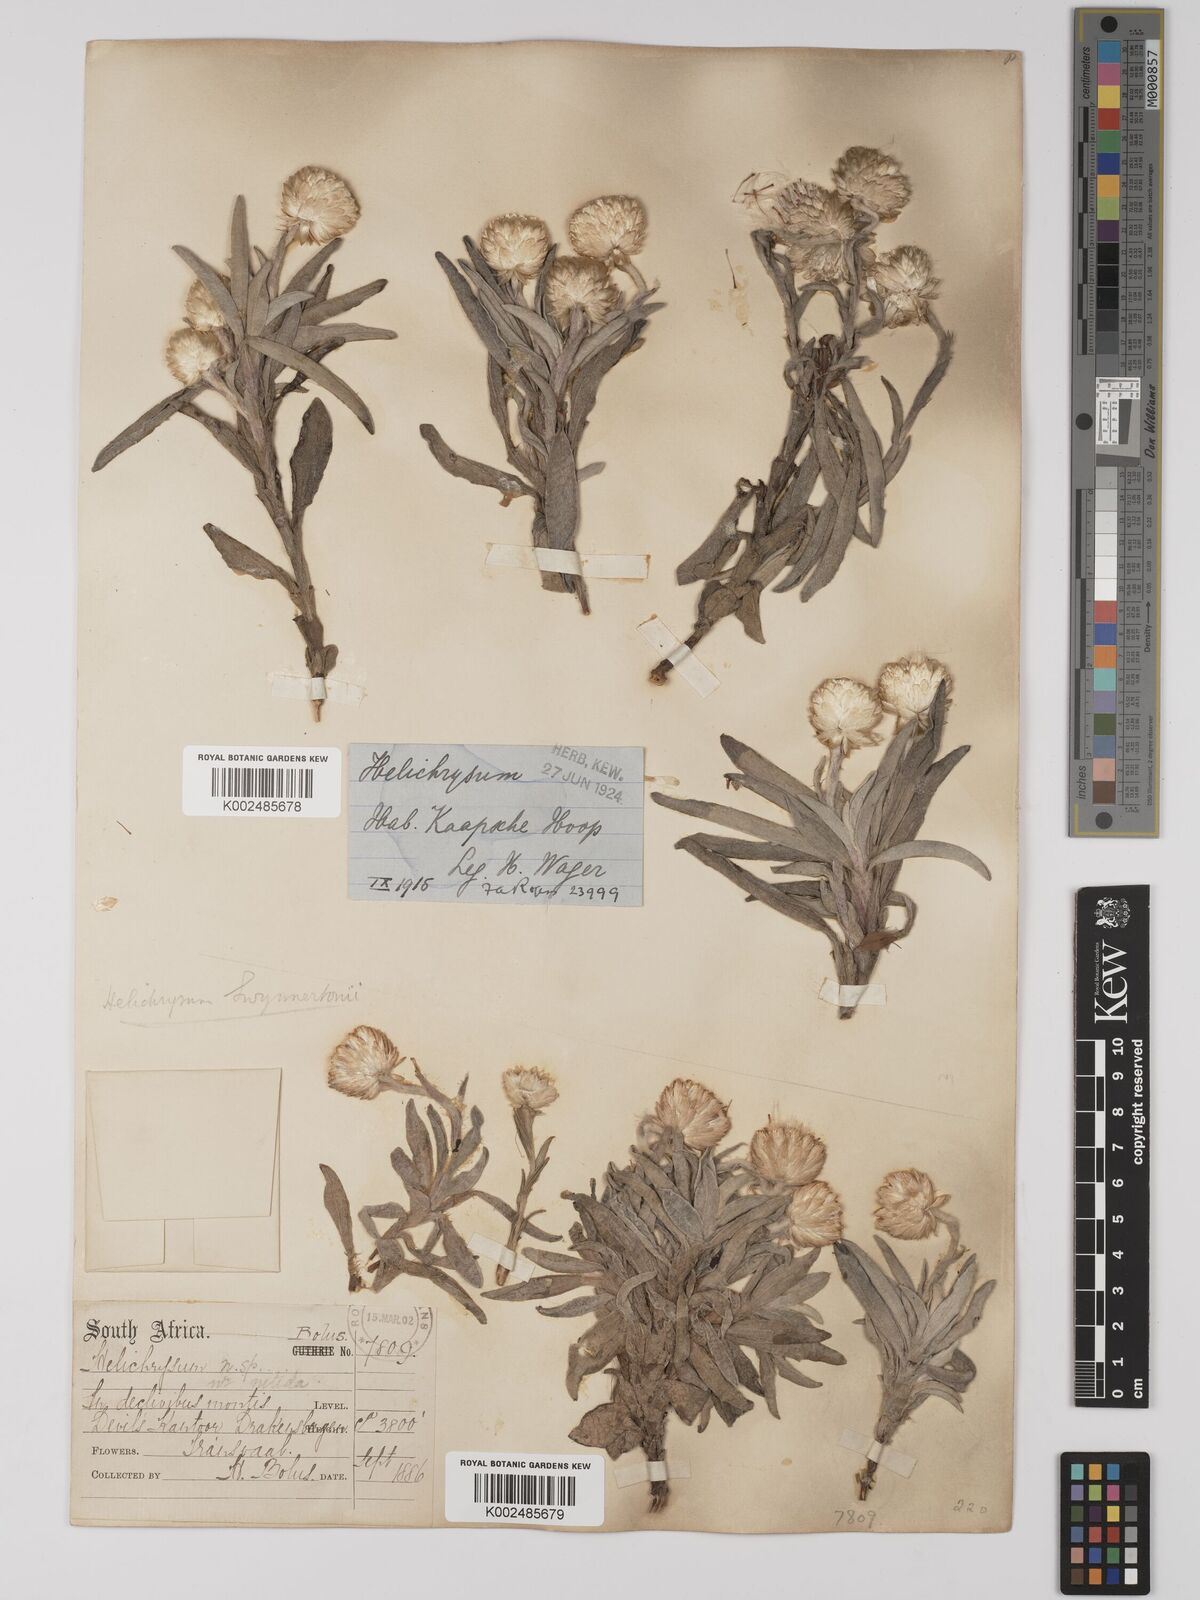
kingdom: Plantae
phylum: Tracheophyta
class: Magnoliopsida
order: Asterales
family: Asteraceae
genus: Helichrysum
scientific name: Helichrysum swynnertonii
